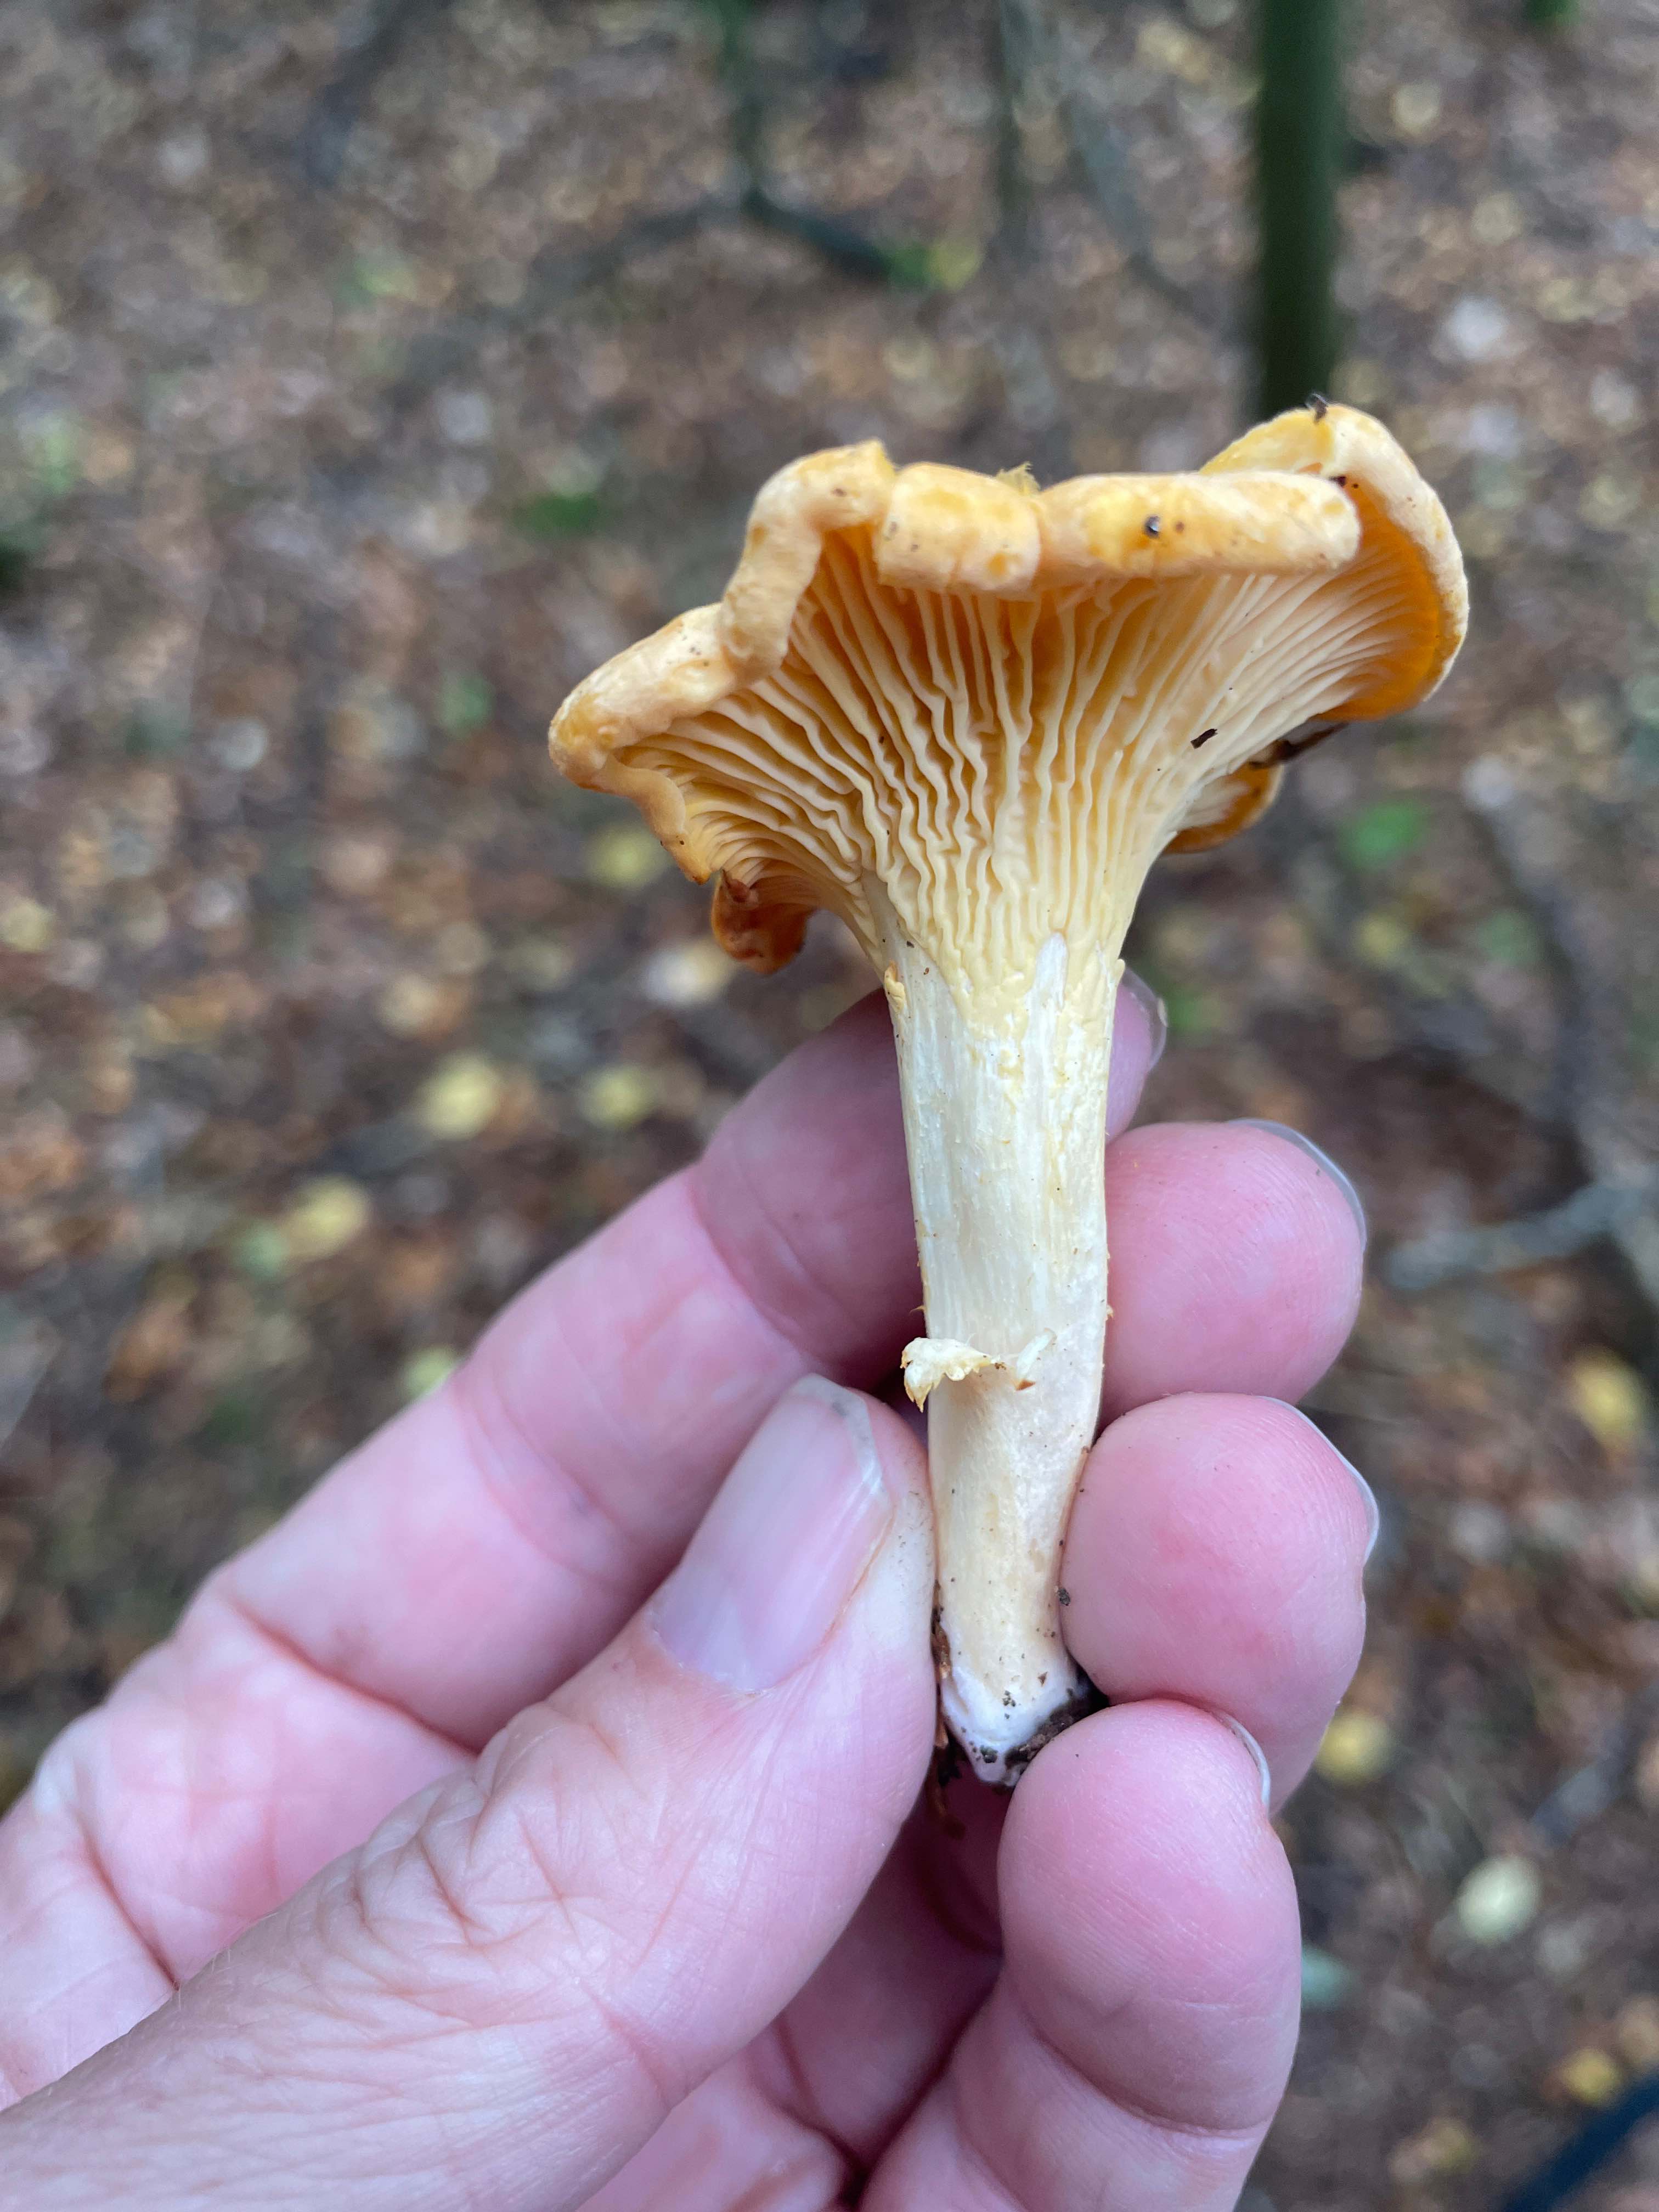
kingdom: Fungi
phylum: Basidiomycota
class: Agaricomycetes
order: Cantharellales
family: Hydnaceae
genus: Cantharellus
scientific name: Cantharellus cibarius
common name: almindelig kantarel
